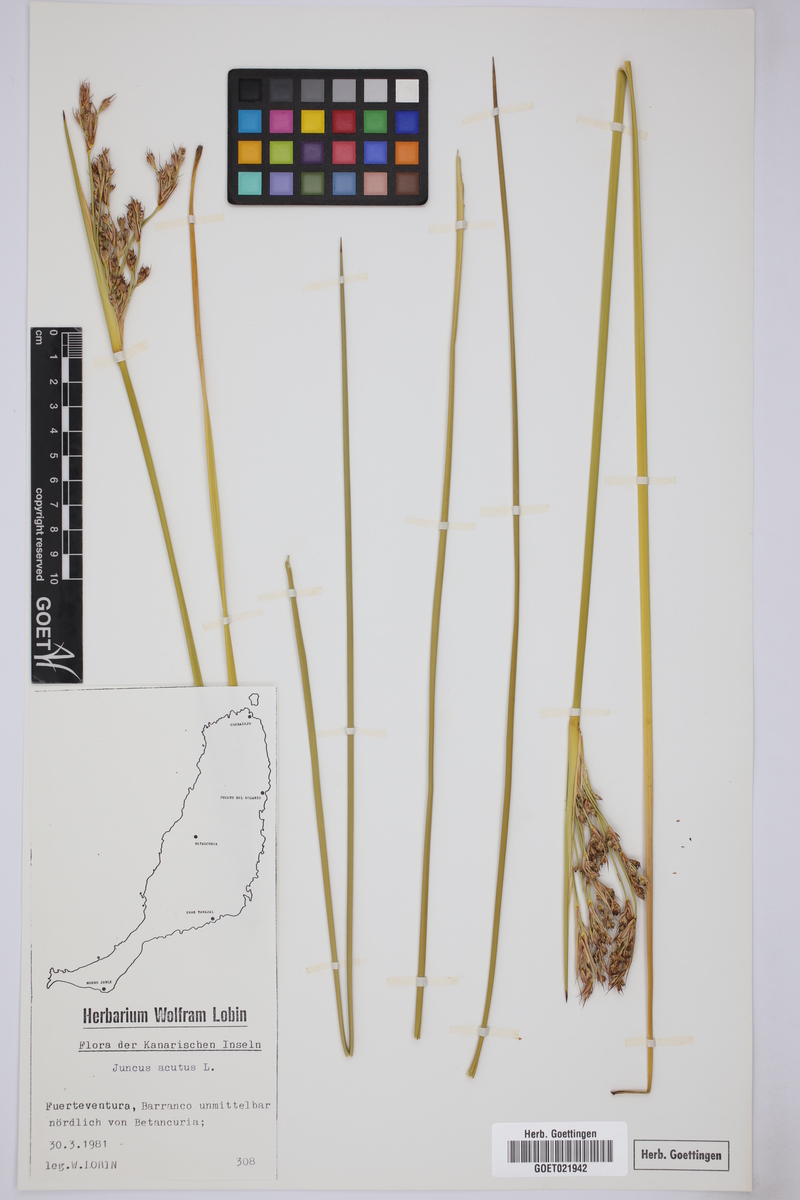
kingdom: Plantae
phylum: Tracheophyta
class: Liliopsida
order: Poales
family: Juncaceae
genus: Juncus
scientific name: Juncus acutus
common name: Sharp rush
